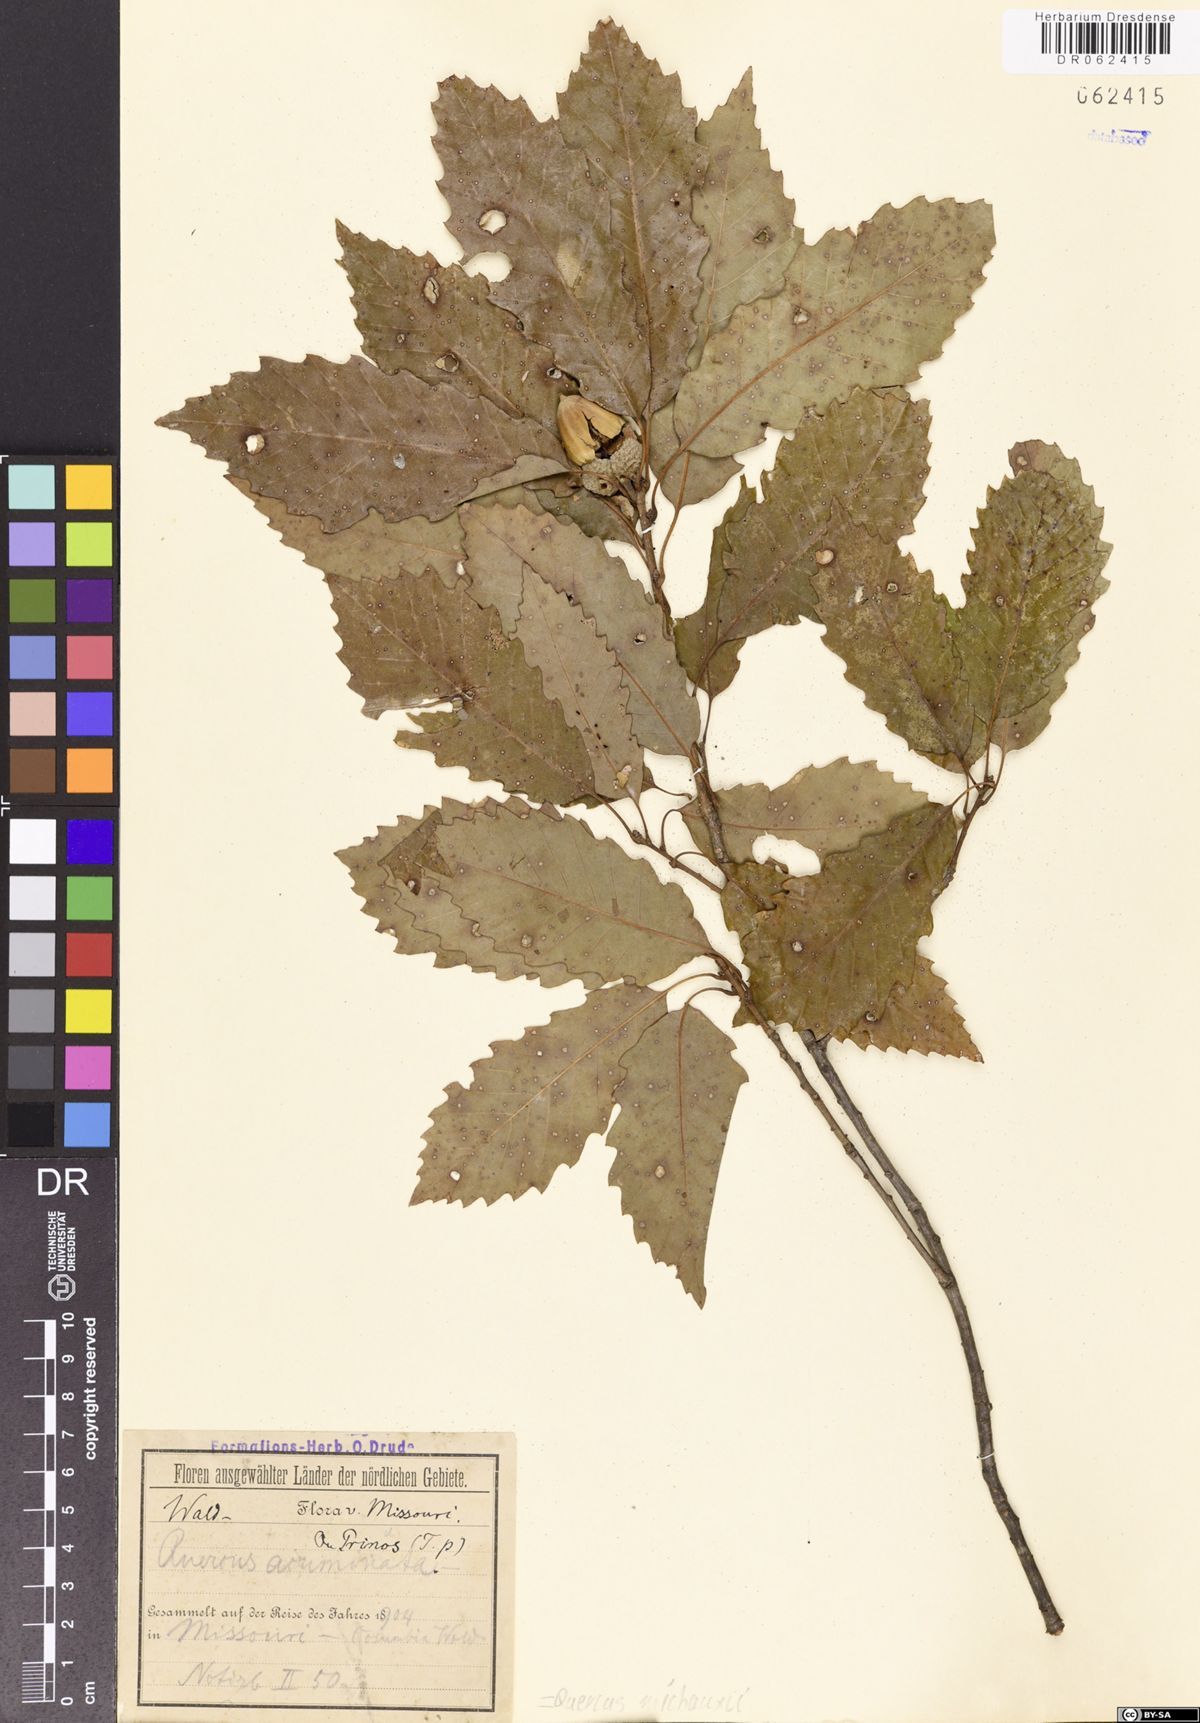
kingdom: Plantae
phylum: Tracheophyta
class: Magnoliopsida
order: Fagales
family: Fagaceae
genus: Quercus
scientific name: Quercus michauxii
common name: Swamp chestnut oak
